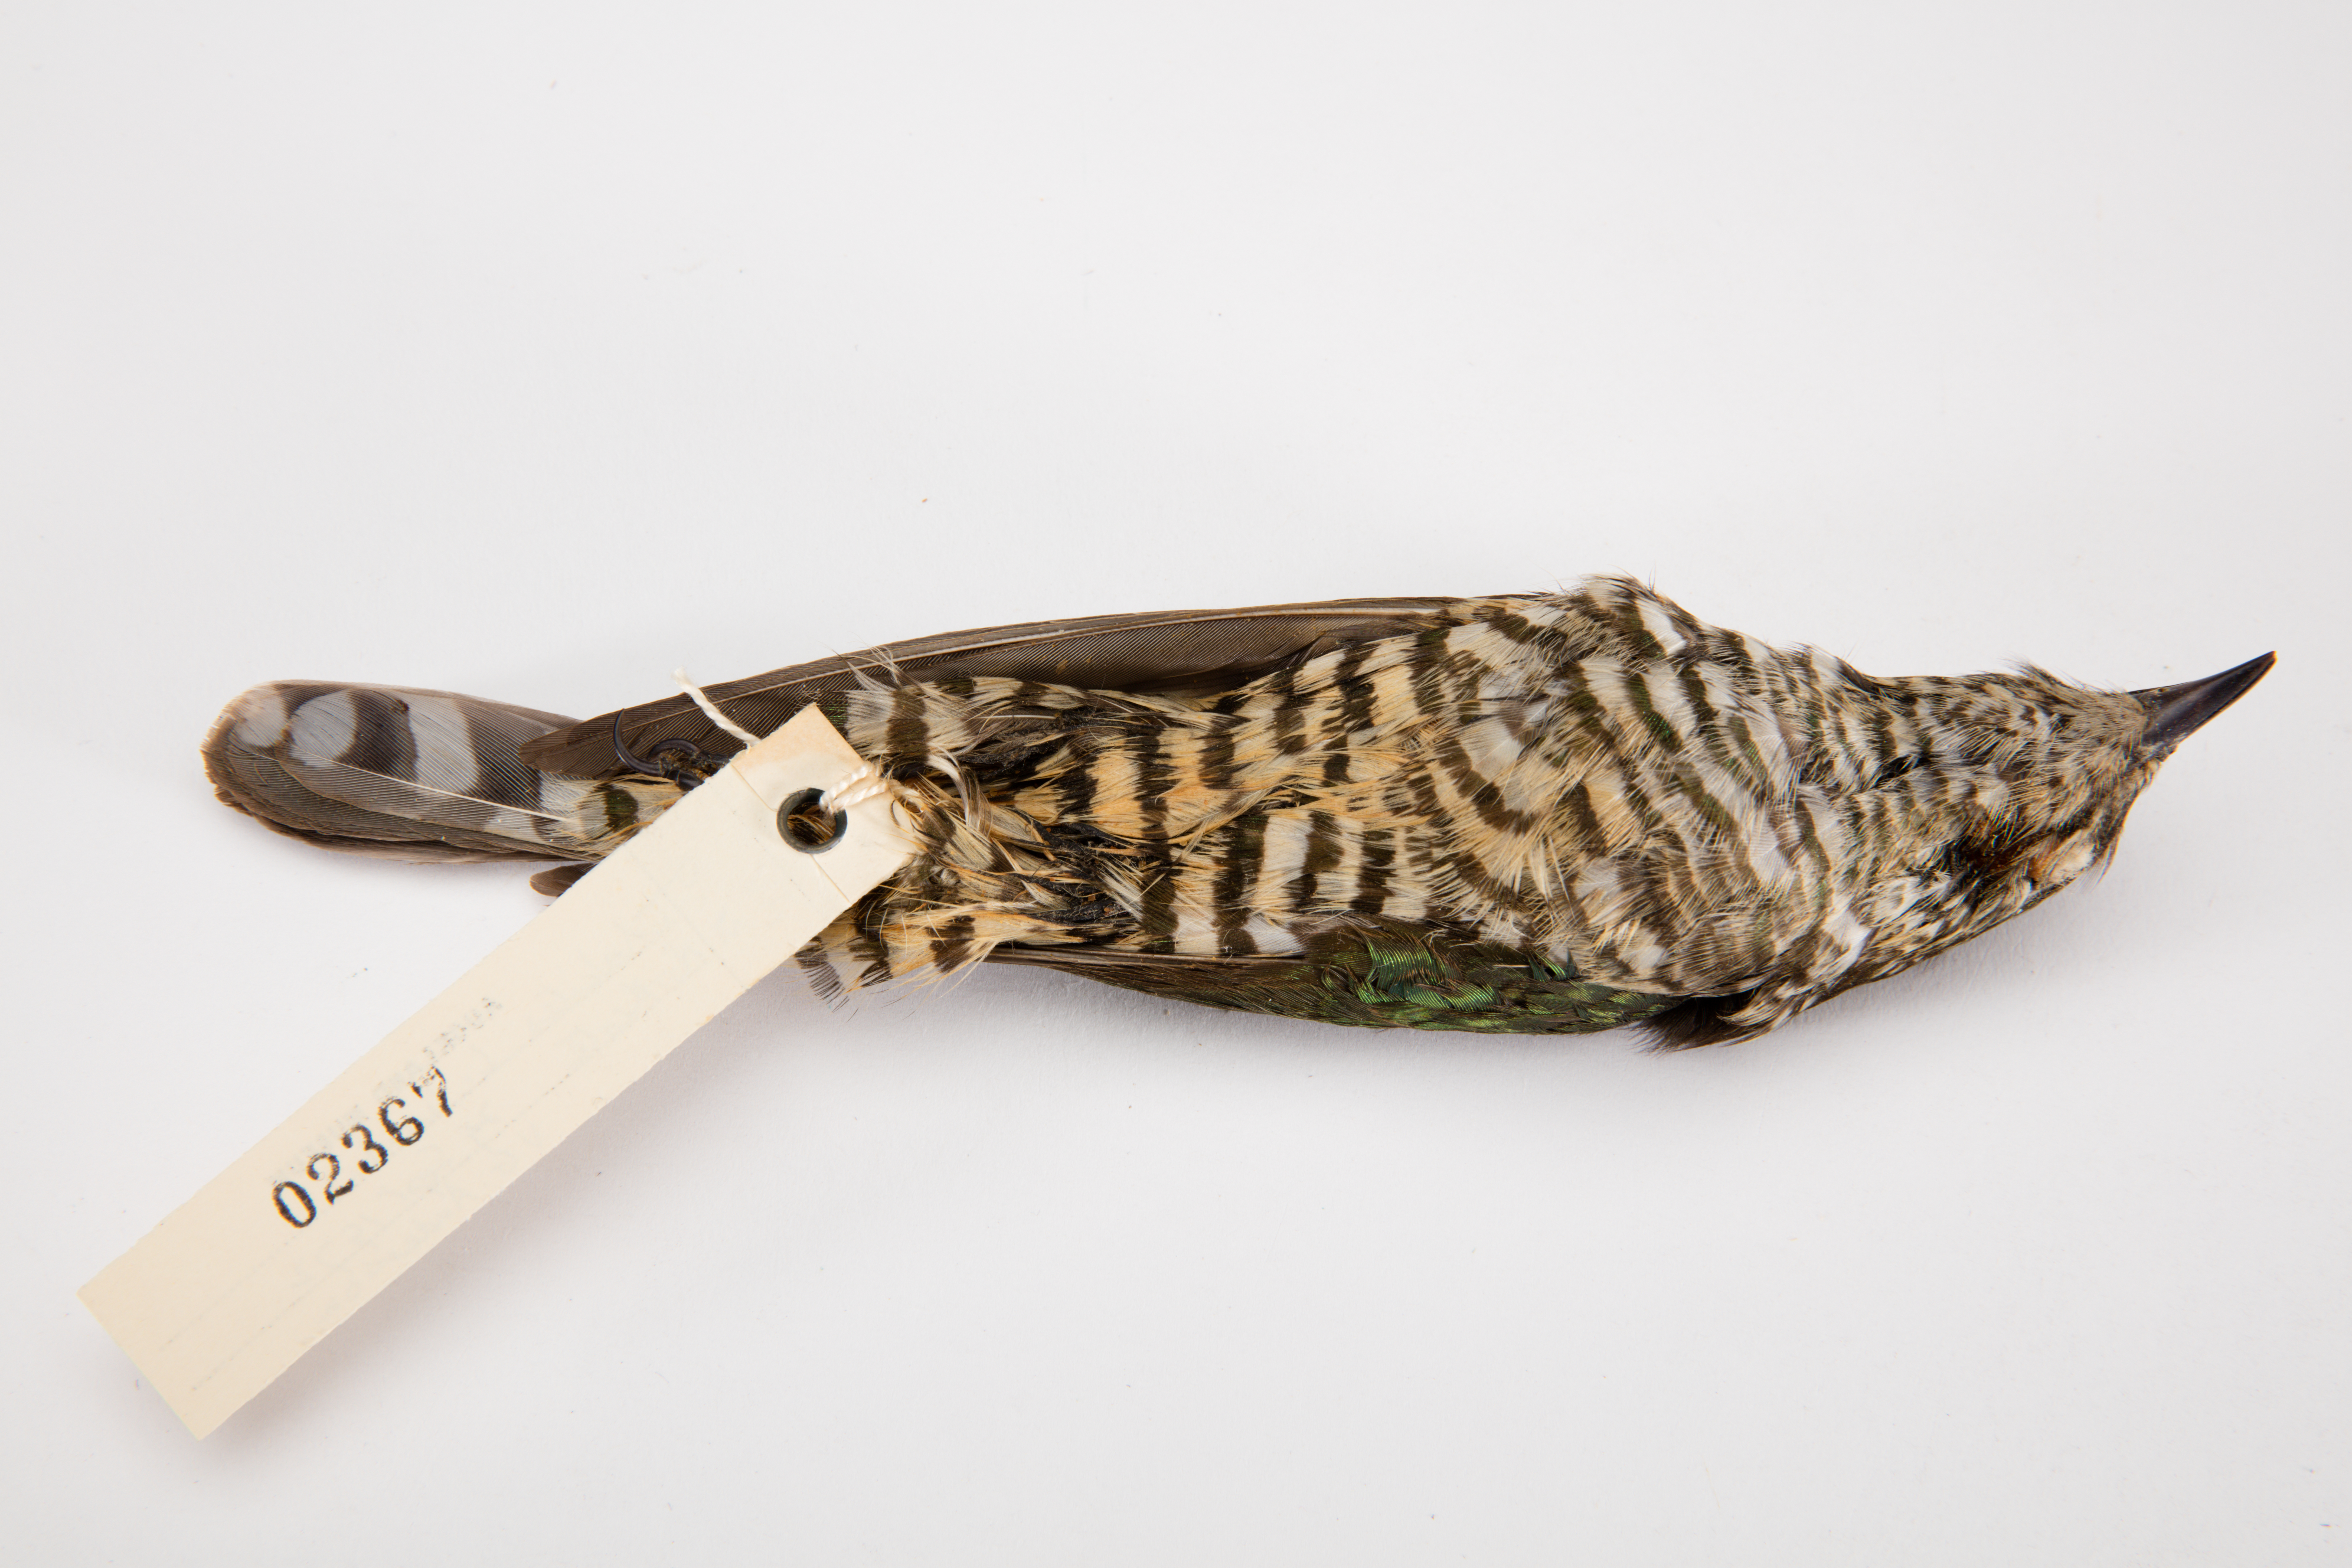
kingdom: Animalia
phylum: Chordata
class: Aves
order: Cuculiformes
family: Cuculidae
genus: Chrysococcyx
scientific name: Chrysococcyx lucidus
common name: Shining bronze cuckoo
